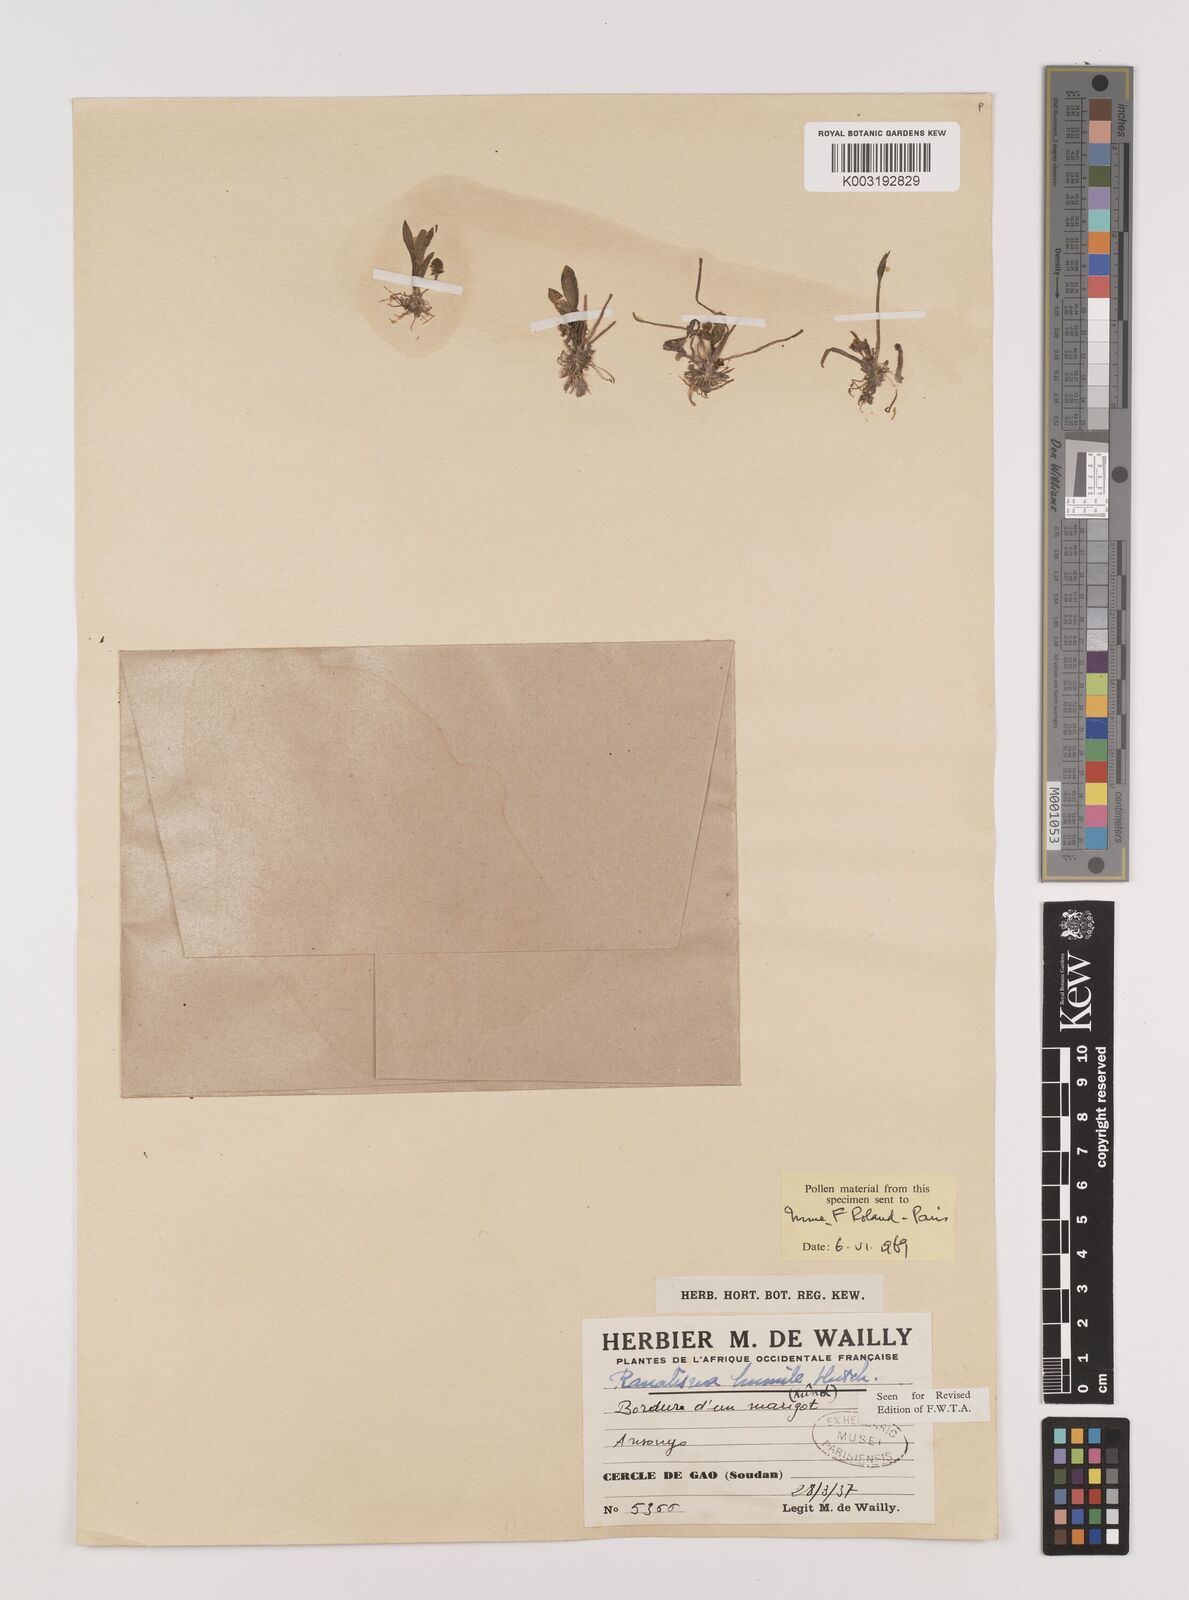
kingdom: Plantae
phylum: Tracheophyta
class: Liliopsida
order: Alismatales
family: Alismataceae
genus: Ranalisma
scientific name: Ranalisma humile
